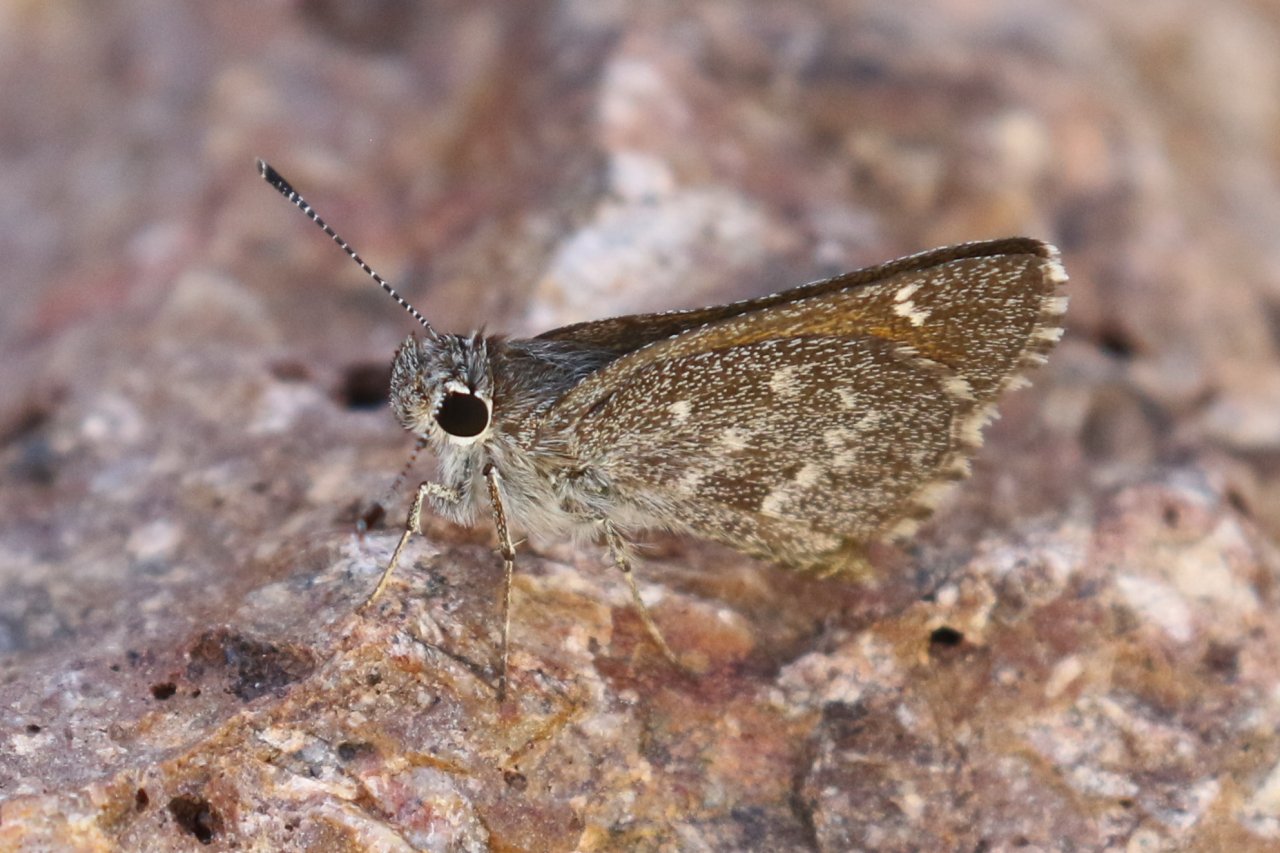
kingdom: Animalia
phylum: Arthropoda
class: Insecta
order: Lepidoptera
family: Hesperiidae
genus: Mastor
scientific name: Mastor aenus
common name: Bronze Roadside-Skipper
